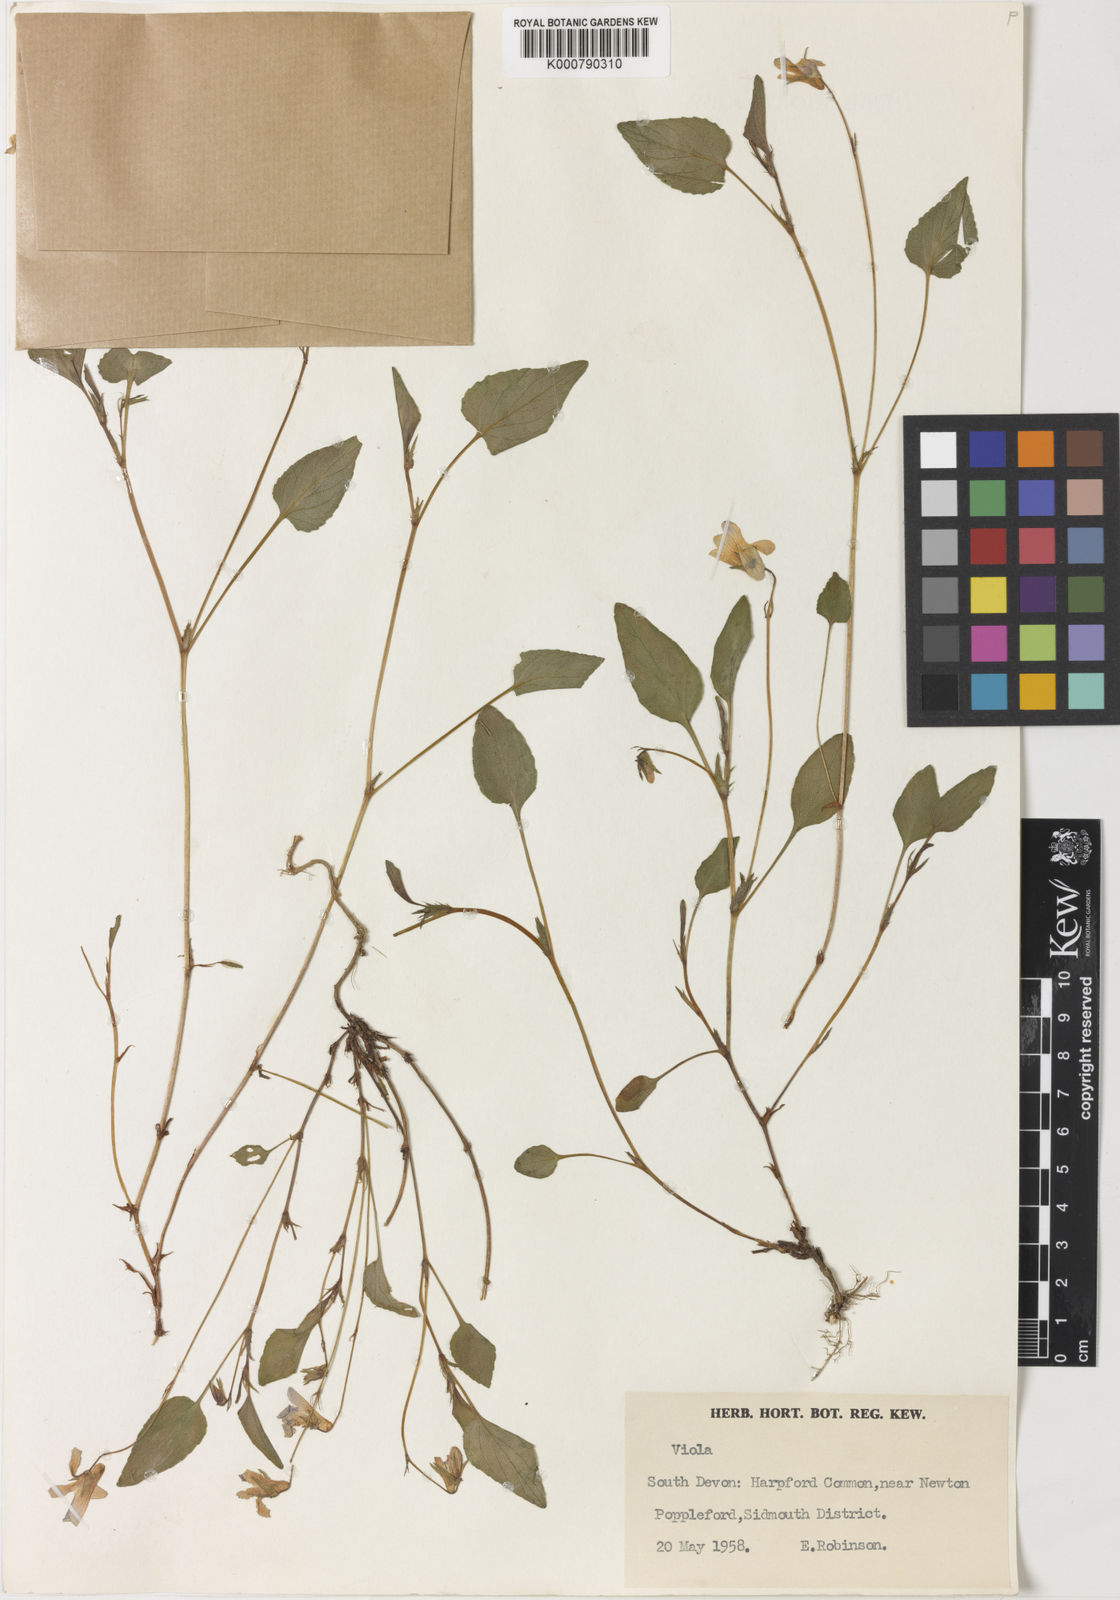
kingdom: Plantae
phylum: Tracheophyta
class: Magnoliopsida
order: Malpighiales
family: Violaceae
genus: Viola
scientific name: Viola lactea
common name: Pale dog-violet
